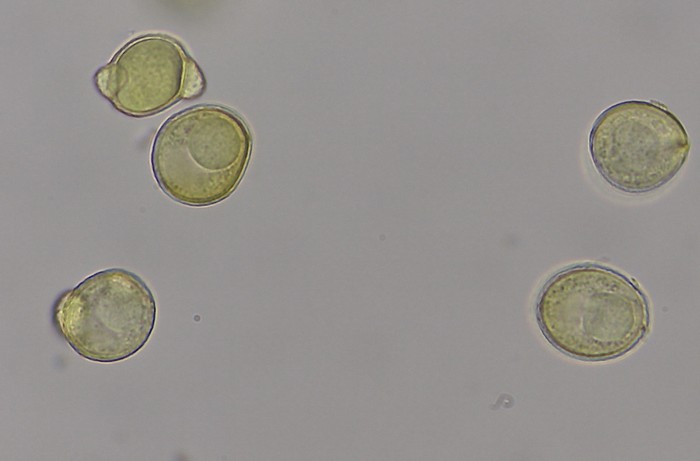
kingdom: Protozoa
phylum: Mycetozoa
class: Myxomycetes
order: Cribrariales
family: Liceaceae
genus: Licea
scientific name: Licea variabilis
